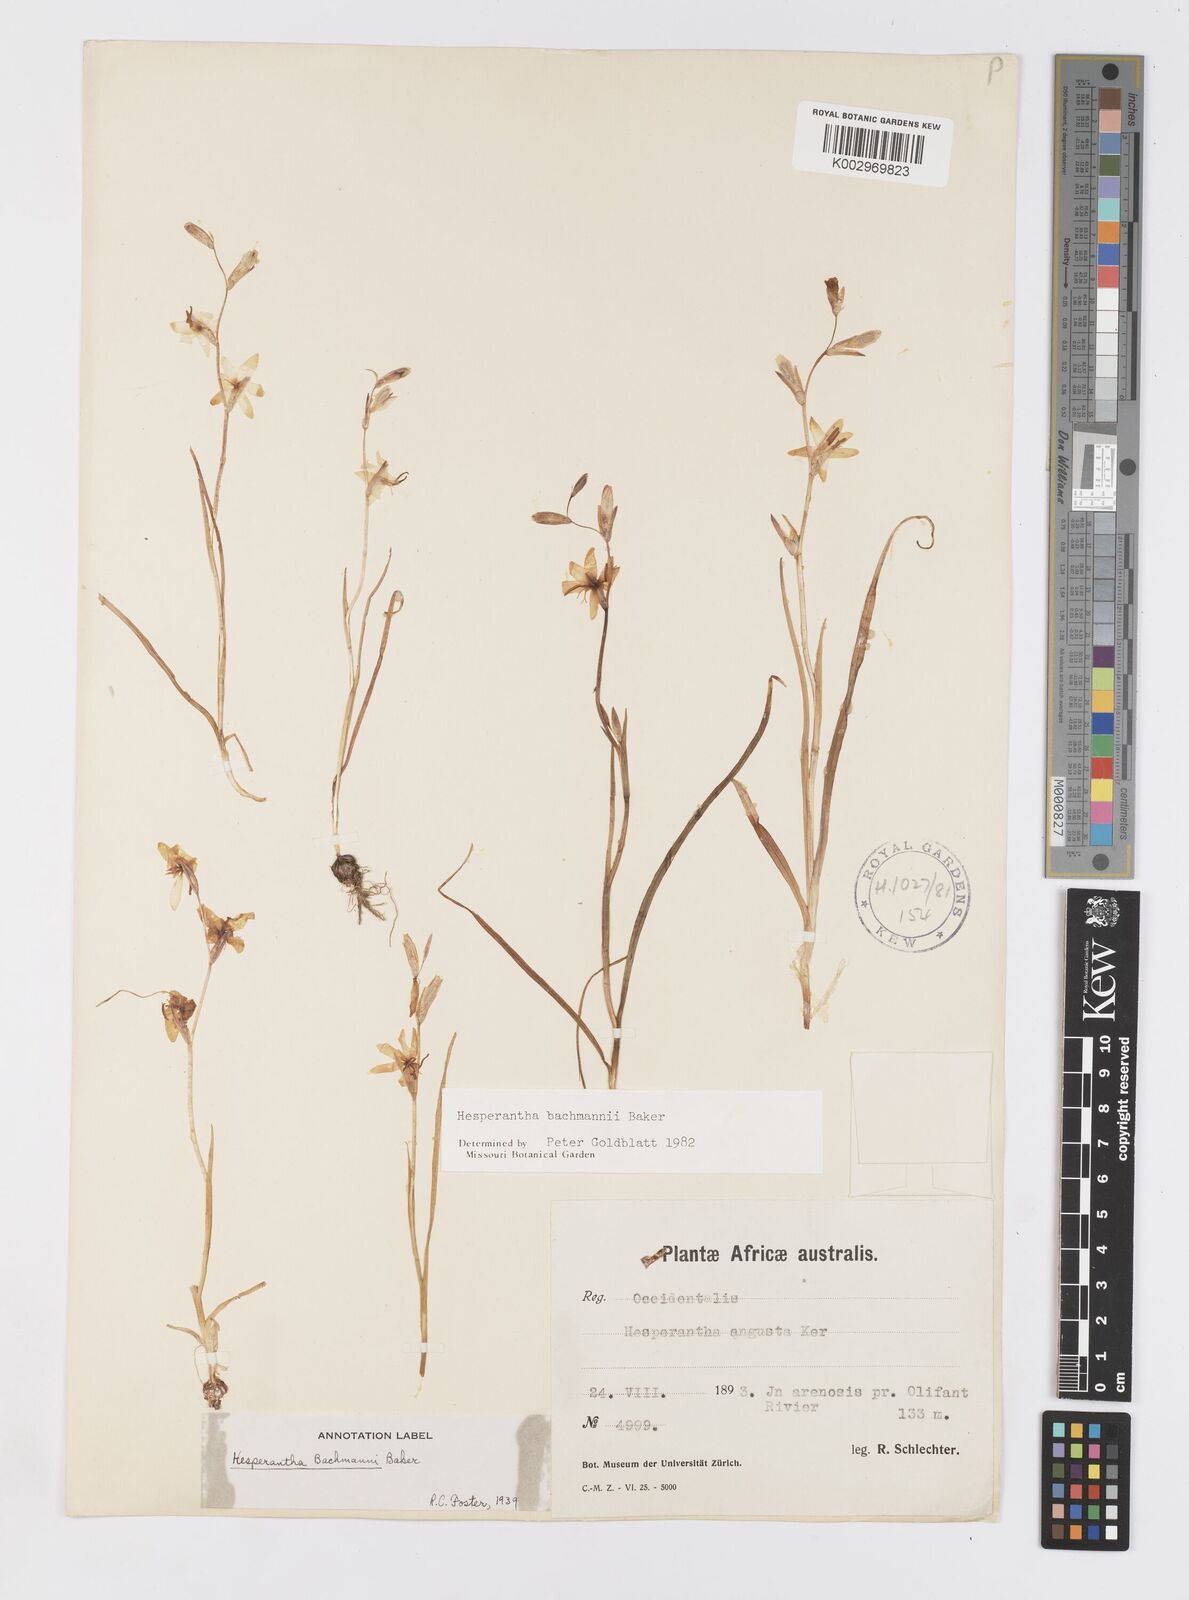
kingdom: Plantae
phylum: Tracheophyta
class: Liliopsida
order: Asparagales
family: Iridaceae
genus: Hesperantha
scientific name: Hesperantha bachmannii
